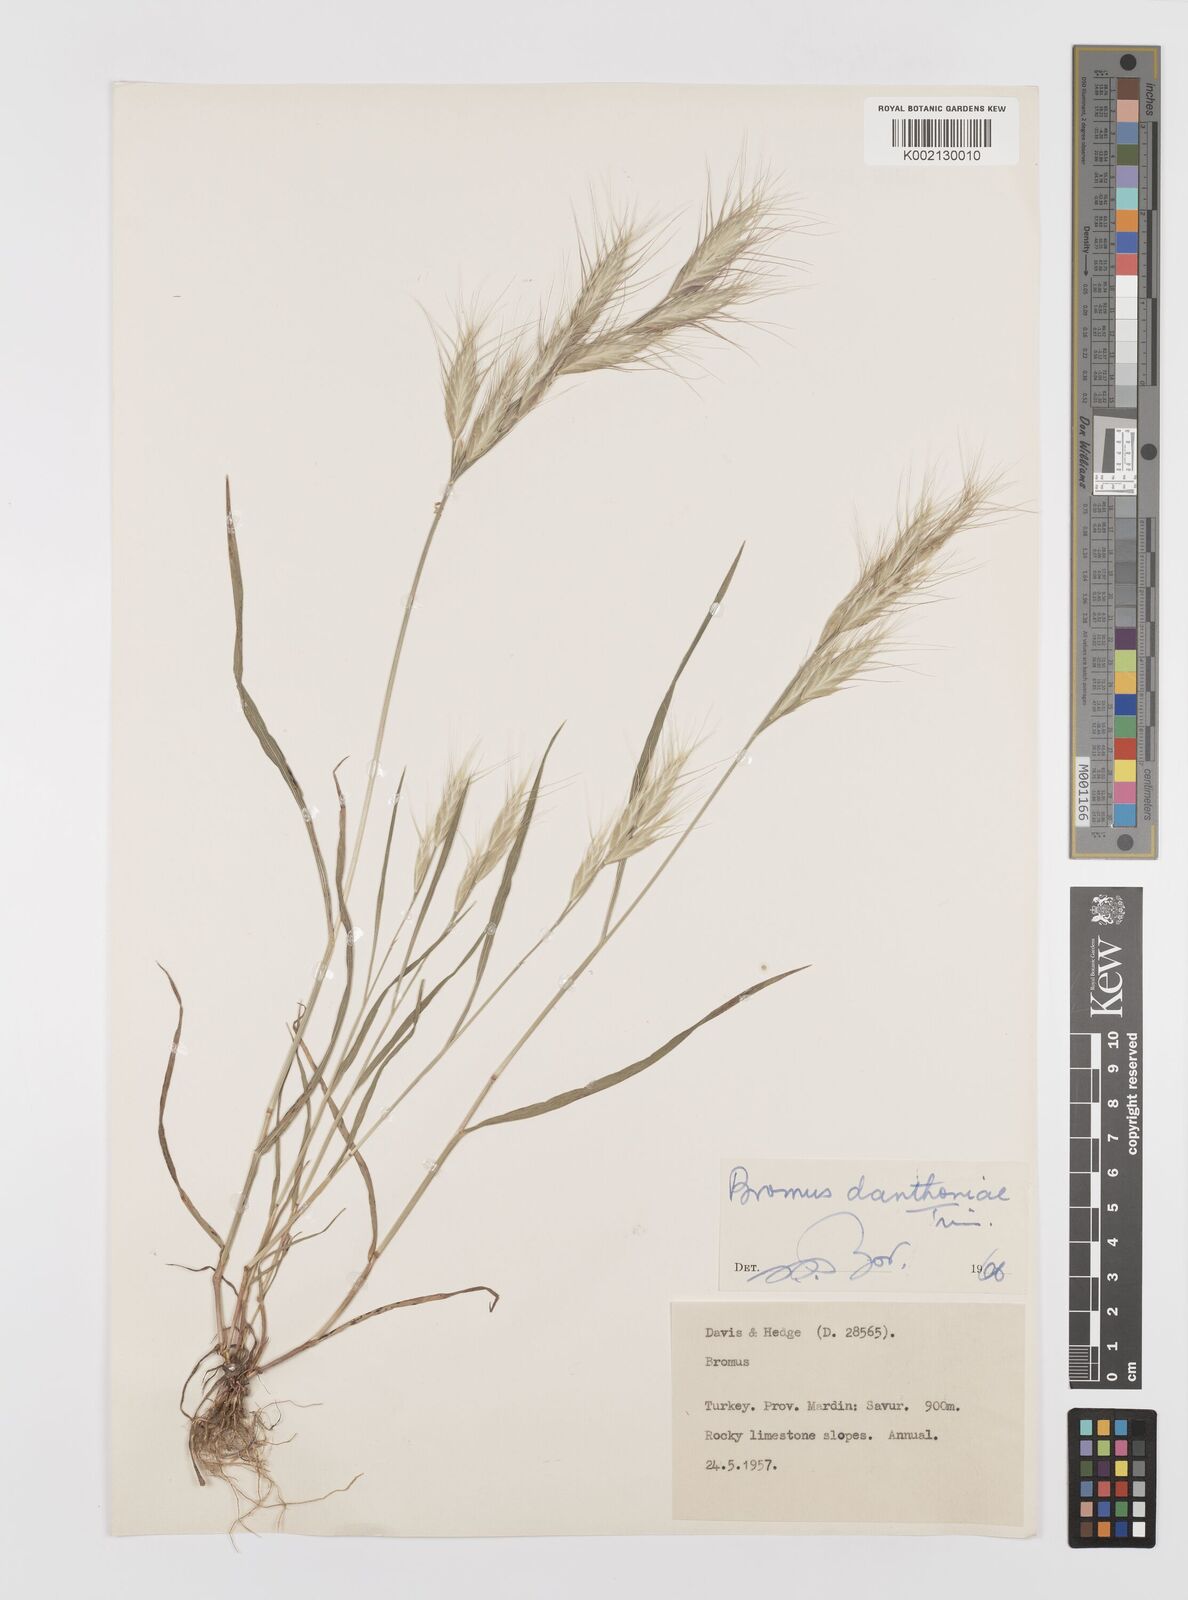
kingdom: Plantae
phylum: Tracheophyta
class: Liliopsida
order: Poales
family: Poaceae
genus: Bromus
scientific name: Bromus danthoniae
